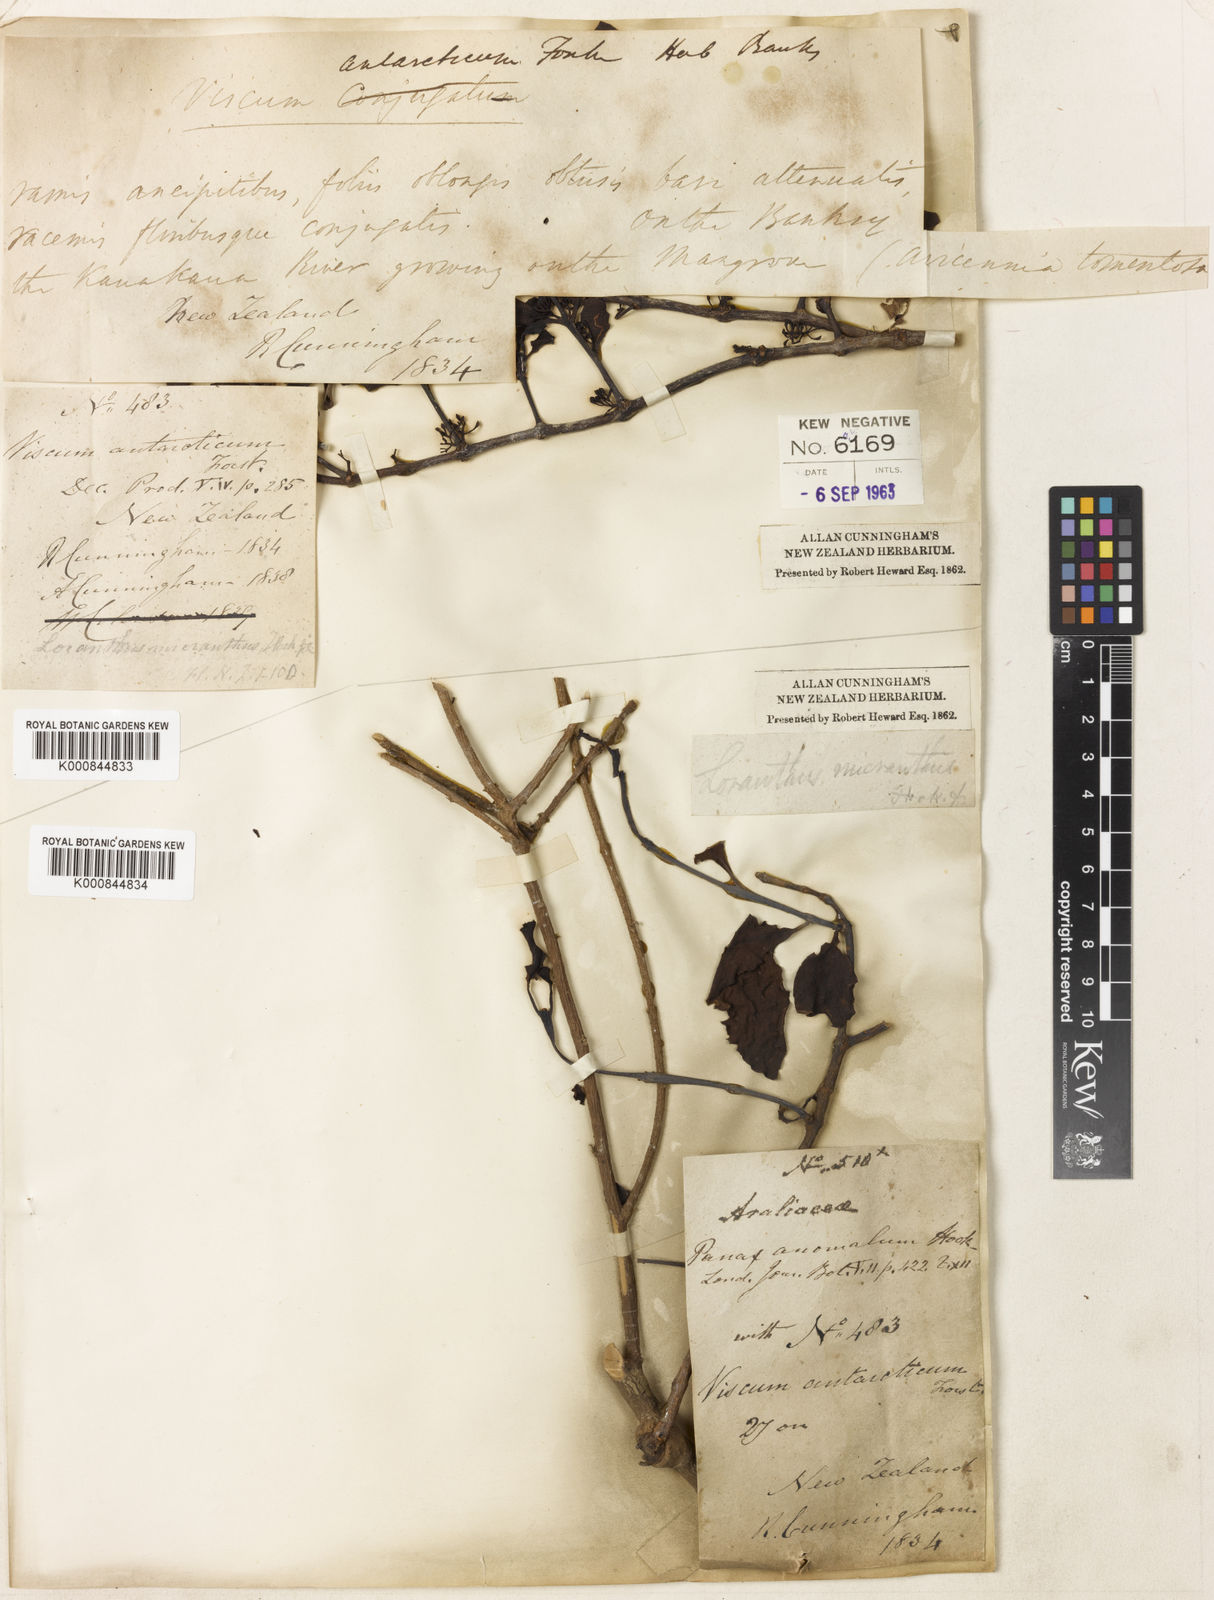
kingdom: Plantae
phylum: Tracheophyta
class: Magnoliopsida
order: Santalales
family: Loranthaceae
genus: Ileostylus
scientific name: Ileostylus micranthus
